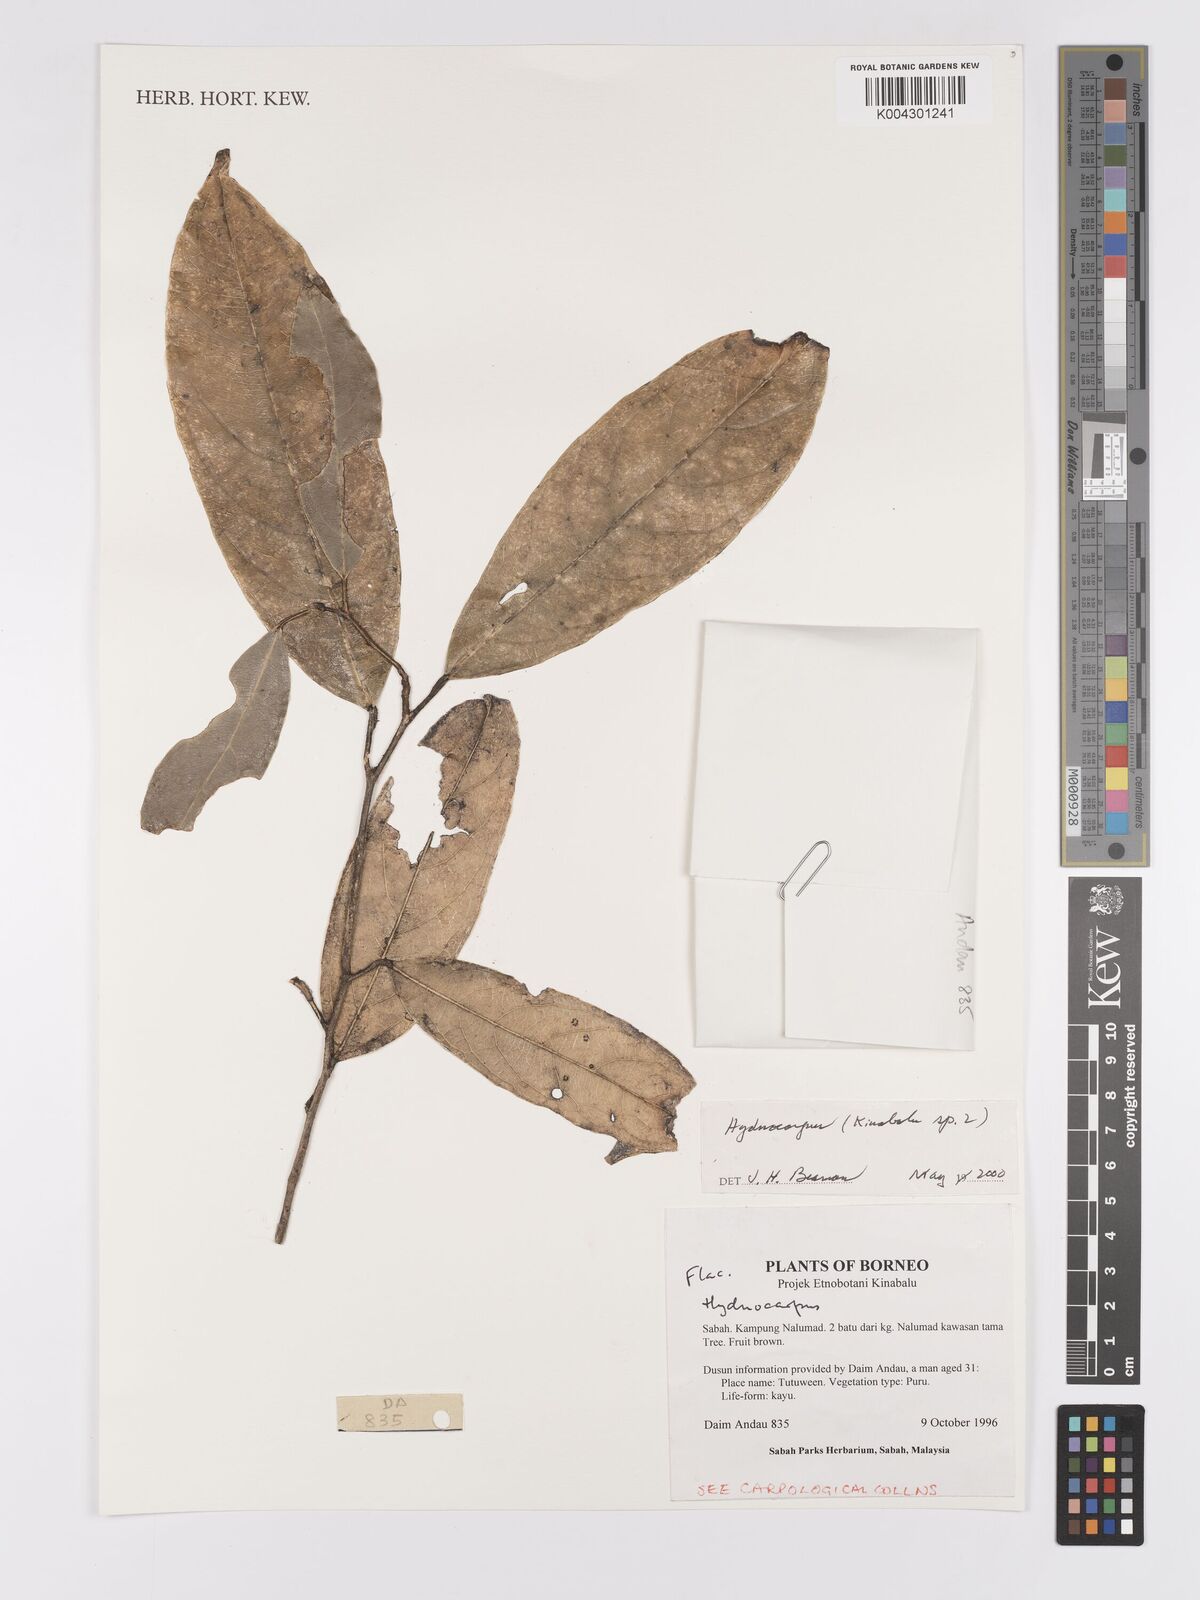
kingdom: Plantae
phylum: Tracheophyta
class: Magnoliopsida
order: Malpighiales
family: Achariaceae
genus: Hydnocarpus
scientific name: Hydnocarpus
